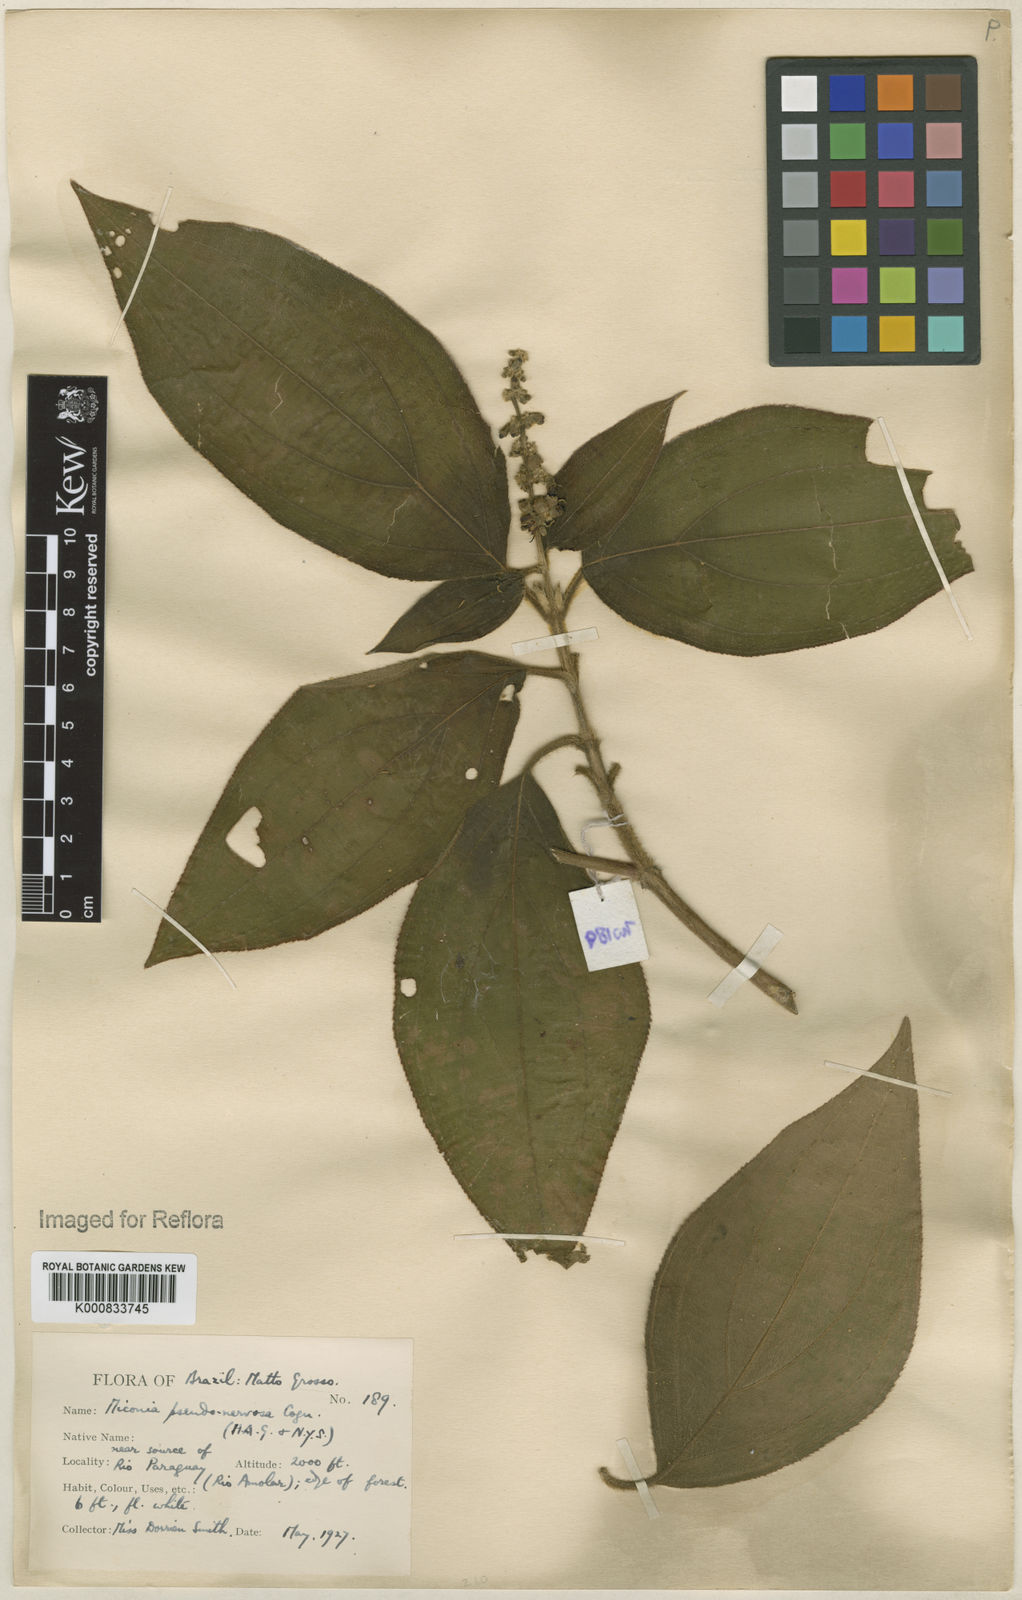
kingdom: Plantae
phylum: Tracheophyta
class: Magnoliopsida
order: Myrtales
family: Melastomataceae
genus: Miconia
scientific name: Miconia pseudonervosa
